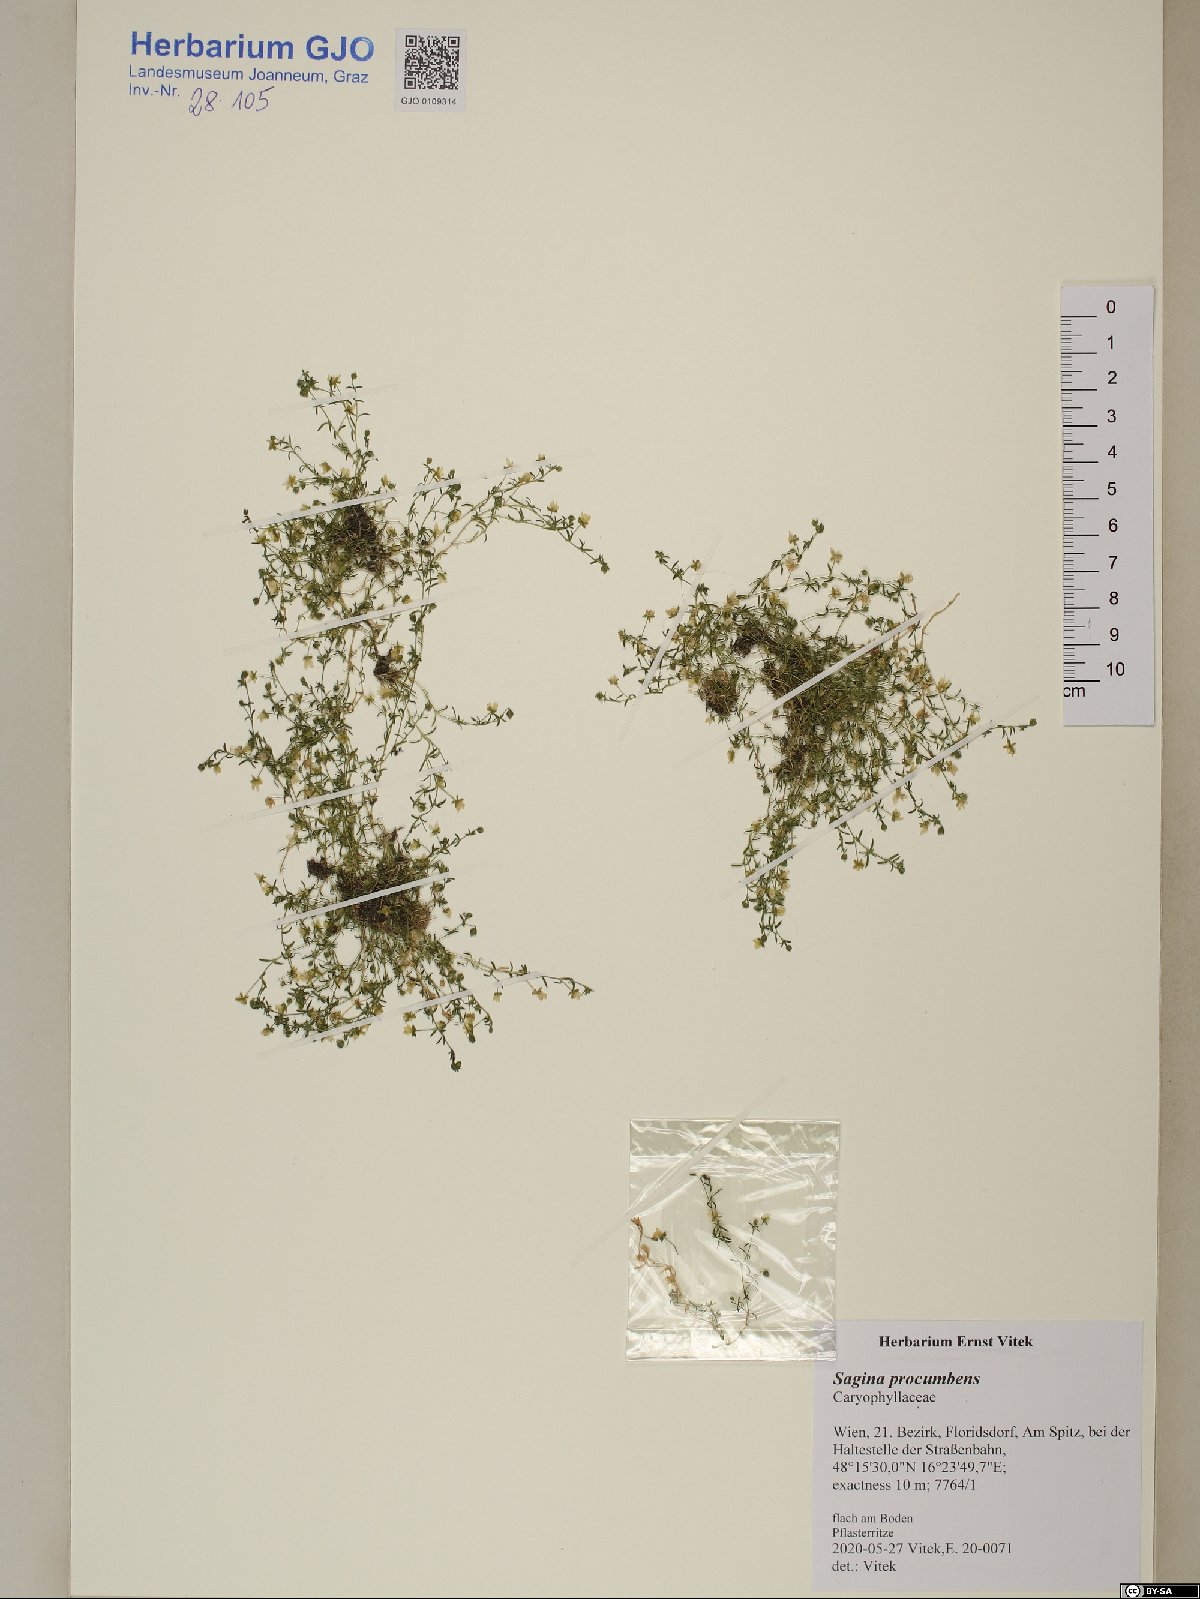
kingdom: Plantae
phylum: Tracheophyta
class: Magnoliopsida
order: Caryophyllales
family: Caryophyllaceae
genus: Sagina
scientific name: Sagina procumbens
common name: Procumbent pearlwort
